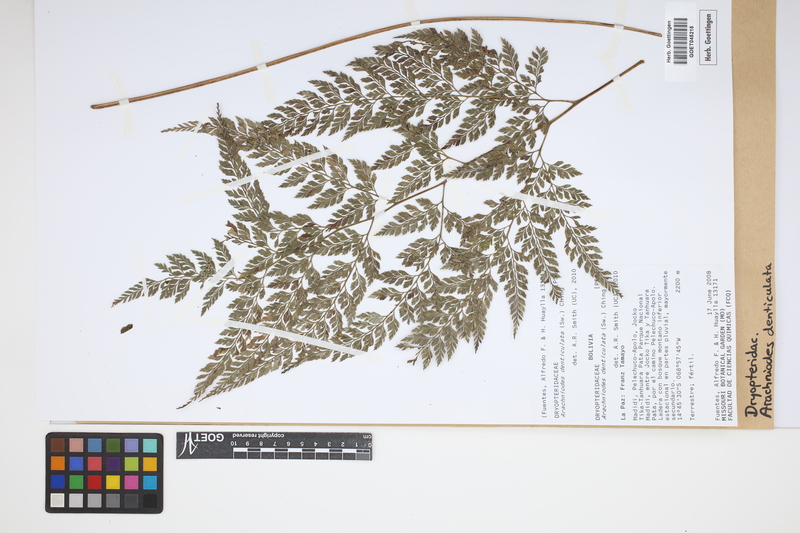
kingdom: Plantae
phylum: Tracheophyta
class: Polypodiopsida
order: Polypodiales
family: Dryopteridaceae
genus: Arachniodes
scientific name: Arachniodes denticulata
